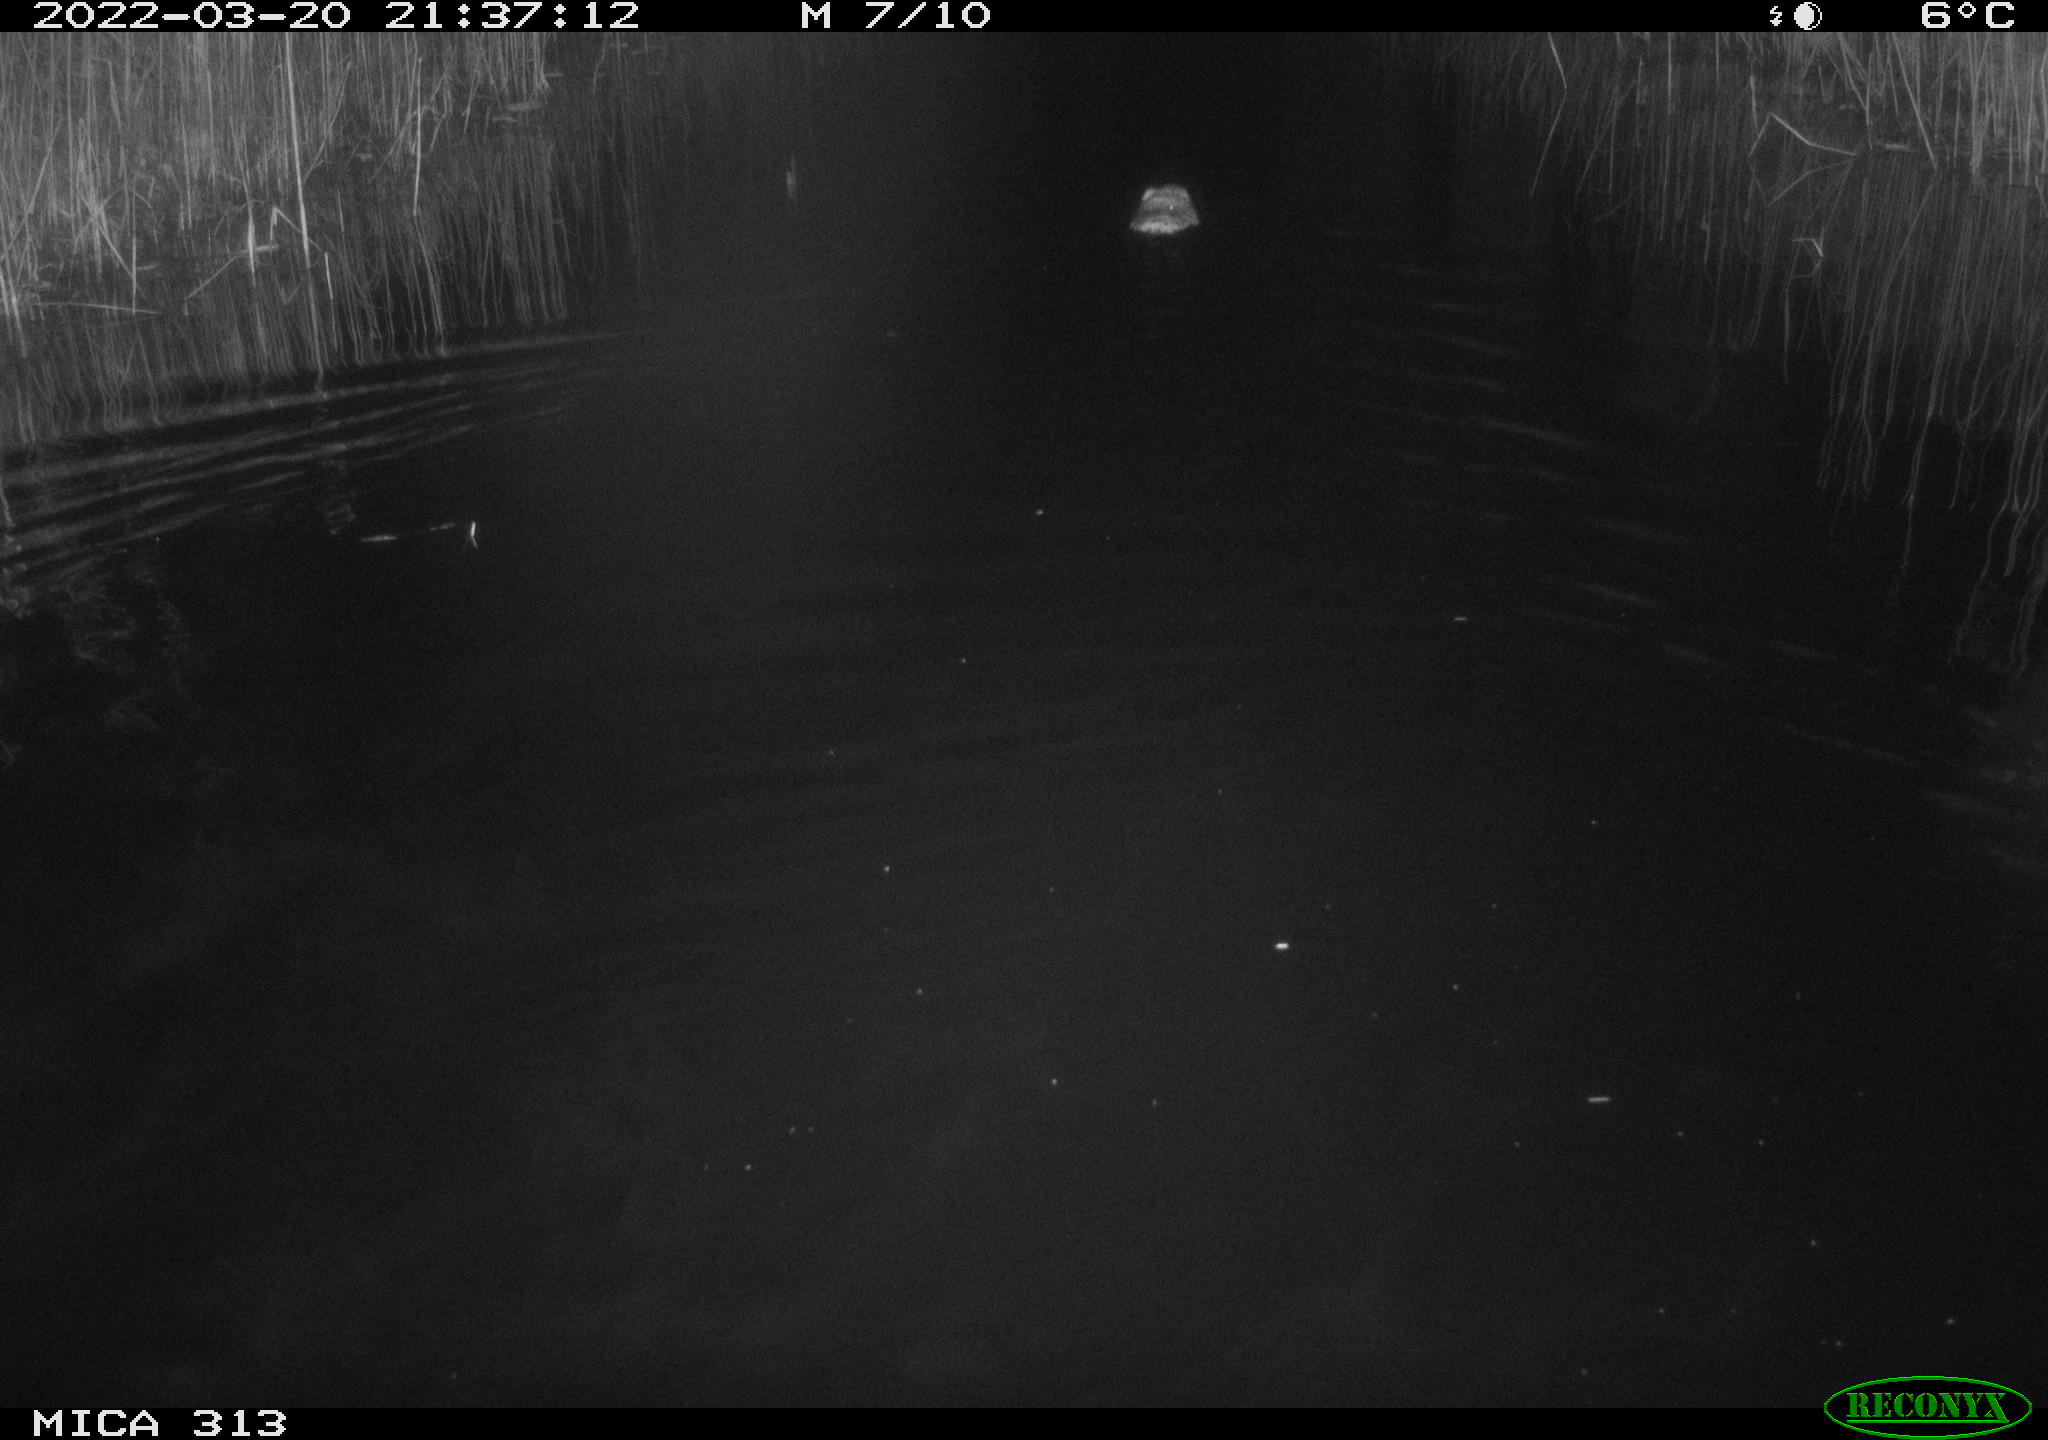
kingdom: Animalia
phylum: Chordata
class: Mammalia
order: Rodentia
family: Cricetidae
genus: Ondatra
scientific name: Ondatra zibethicus
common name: Muskrat
